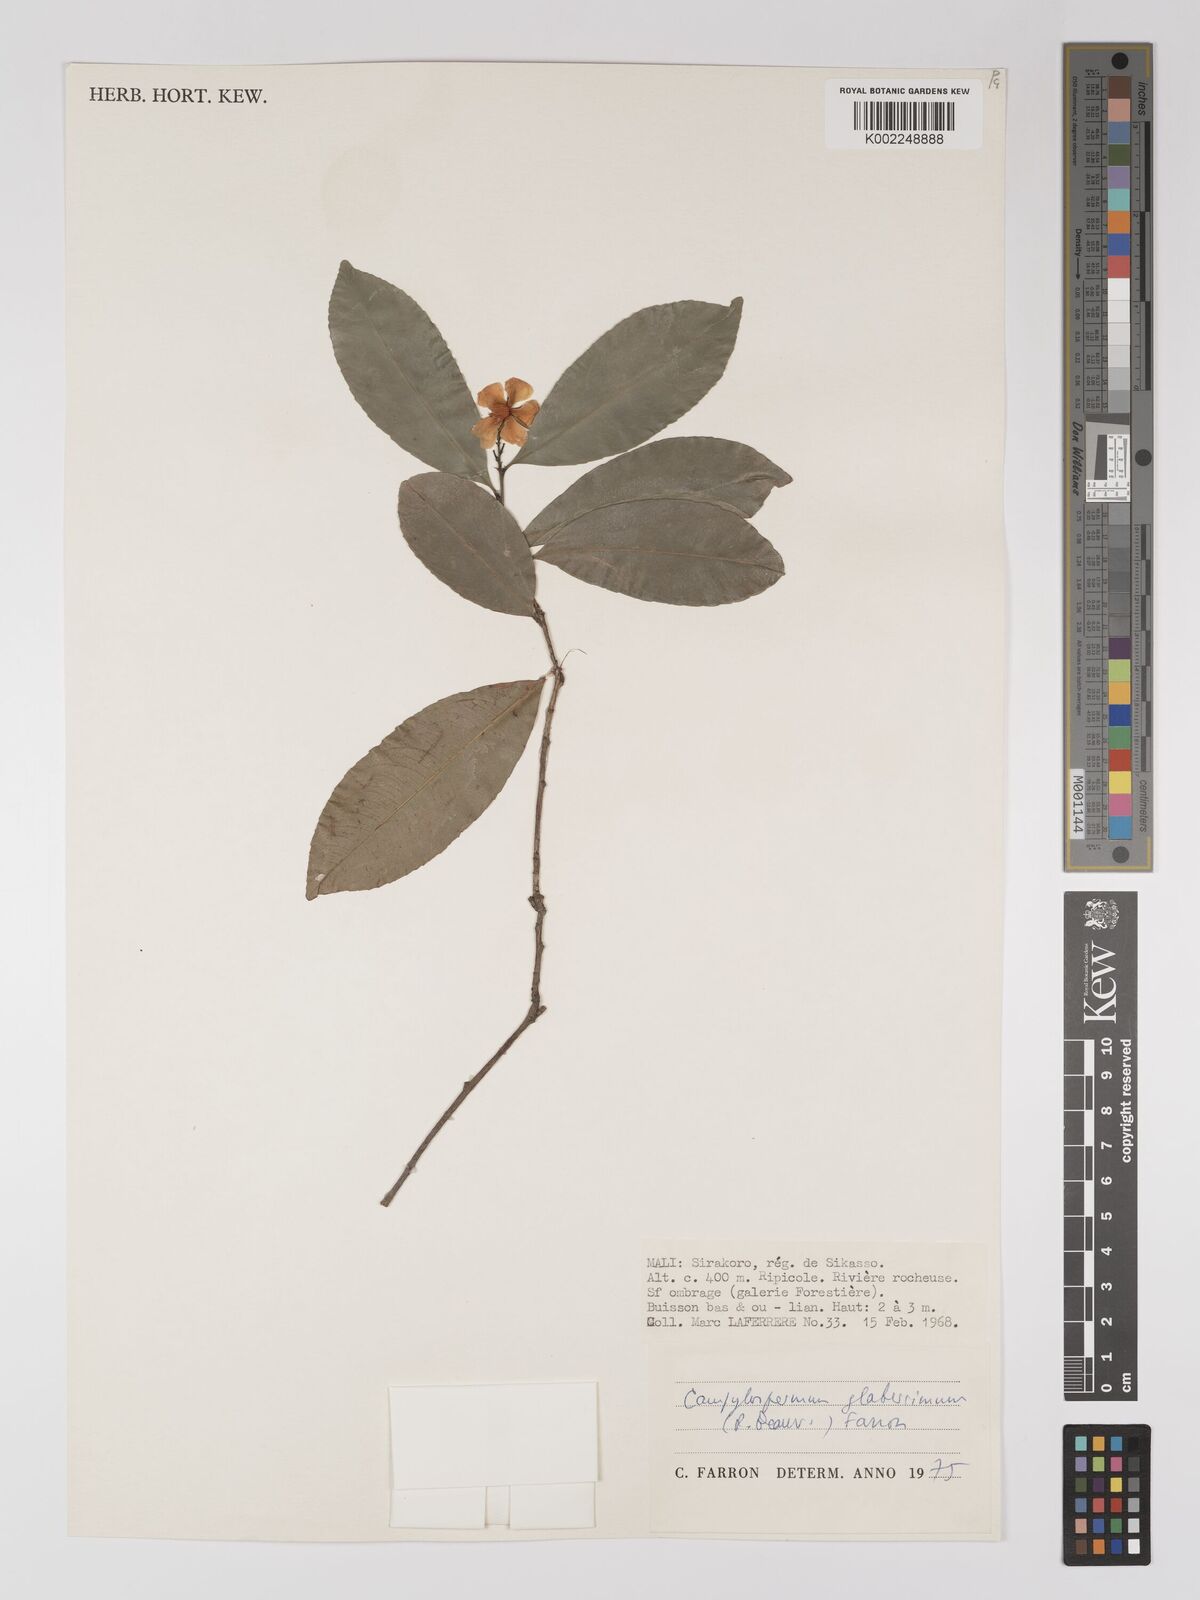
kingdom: Plantae
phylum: Tracheophyta
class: Magnoliopsida
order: Malpighiales
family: Ochnaceae
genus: Campylospermum
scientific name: Campylospermum glaberrimum
